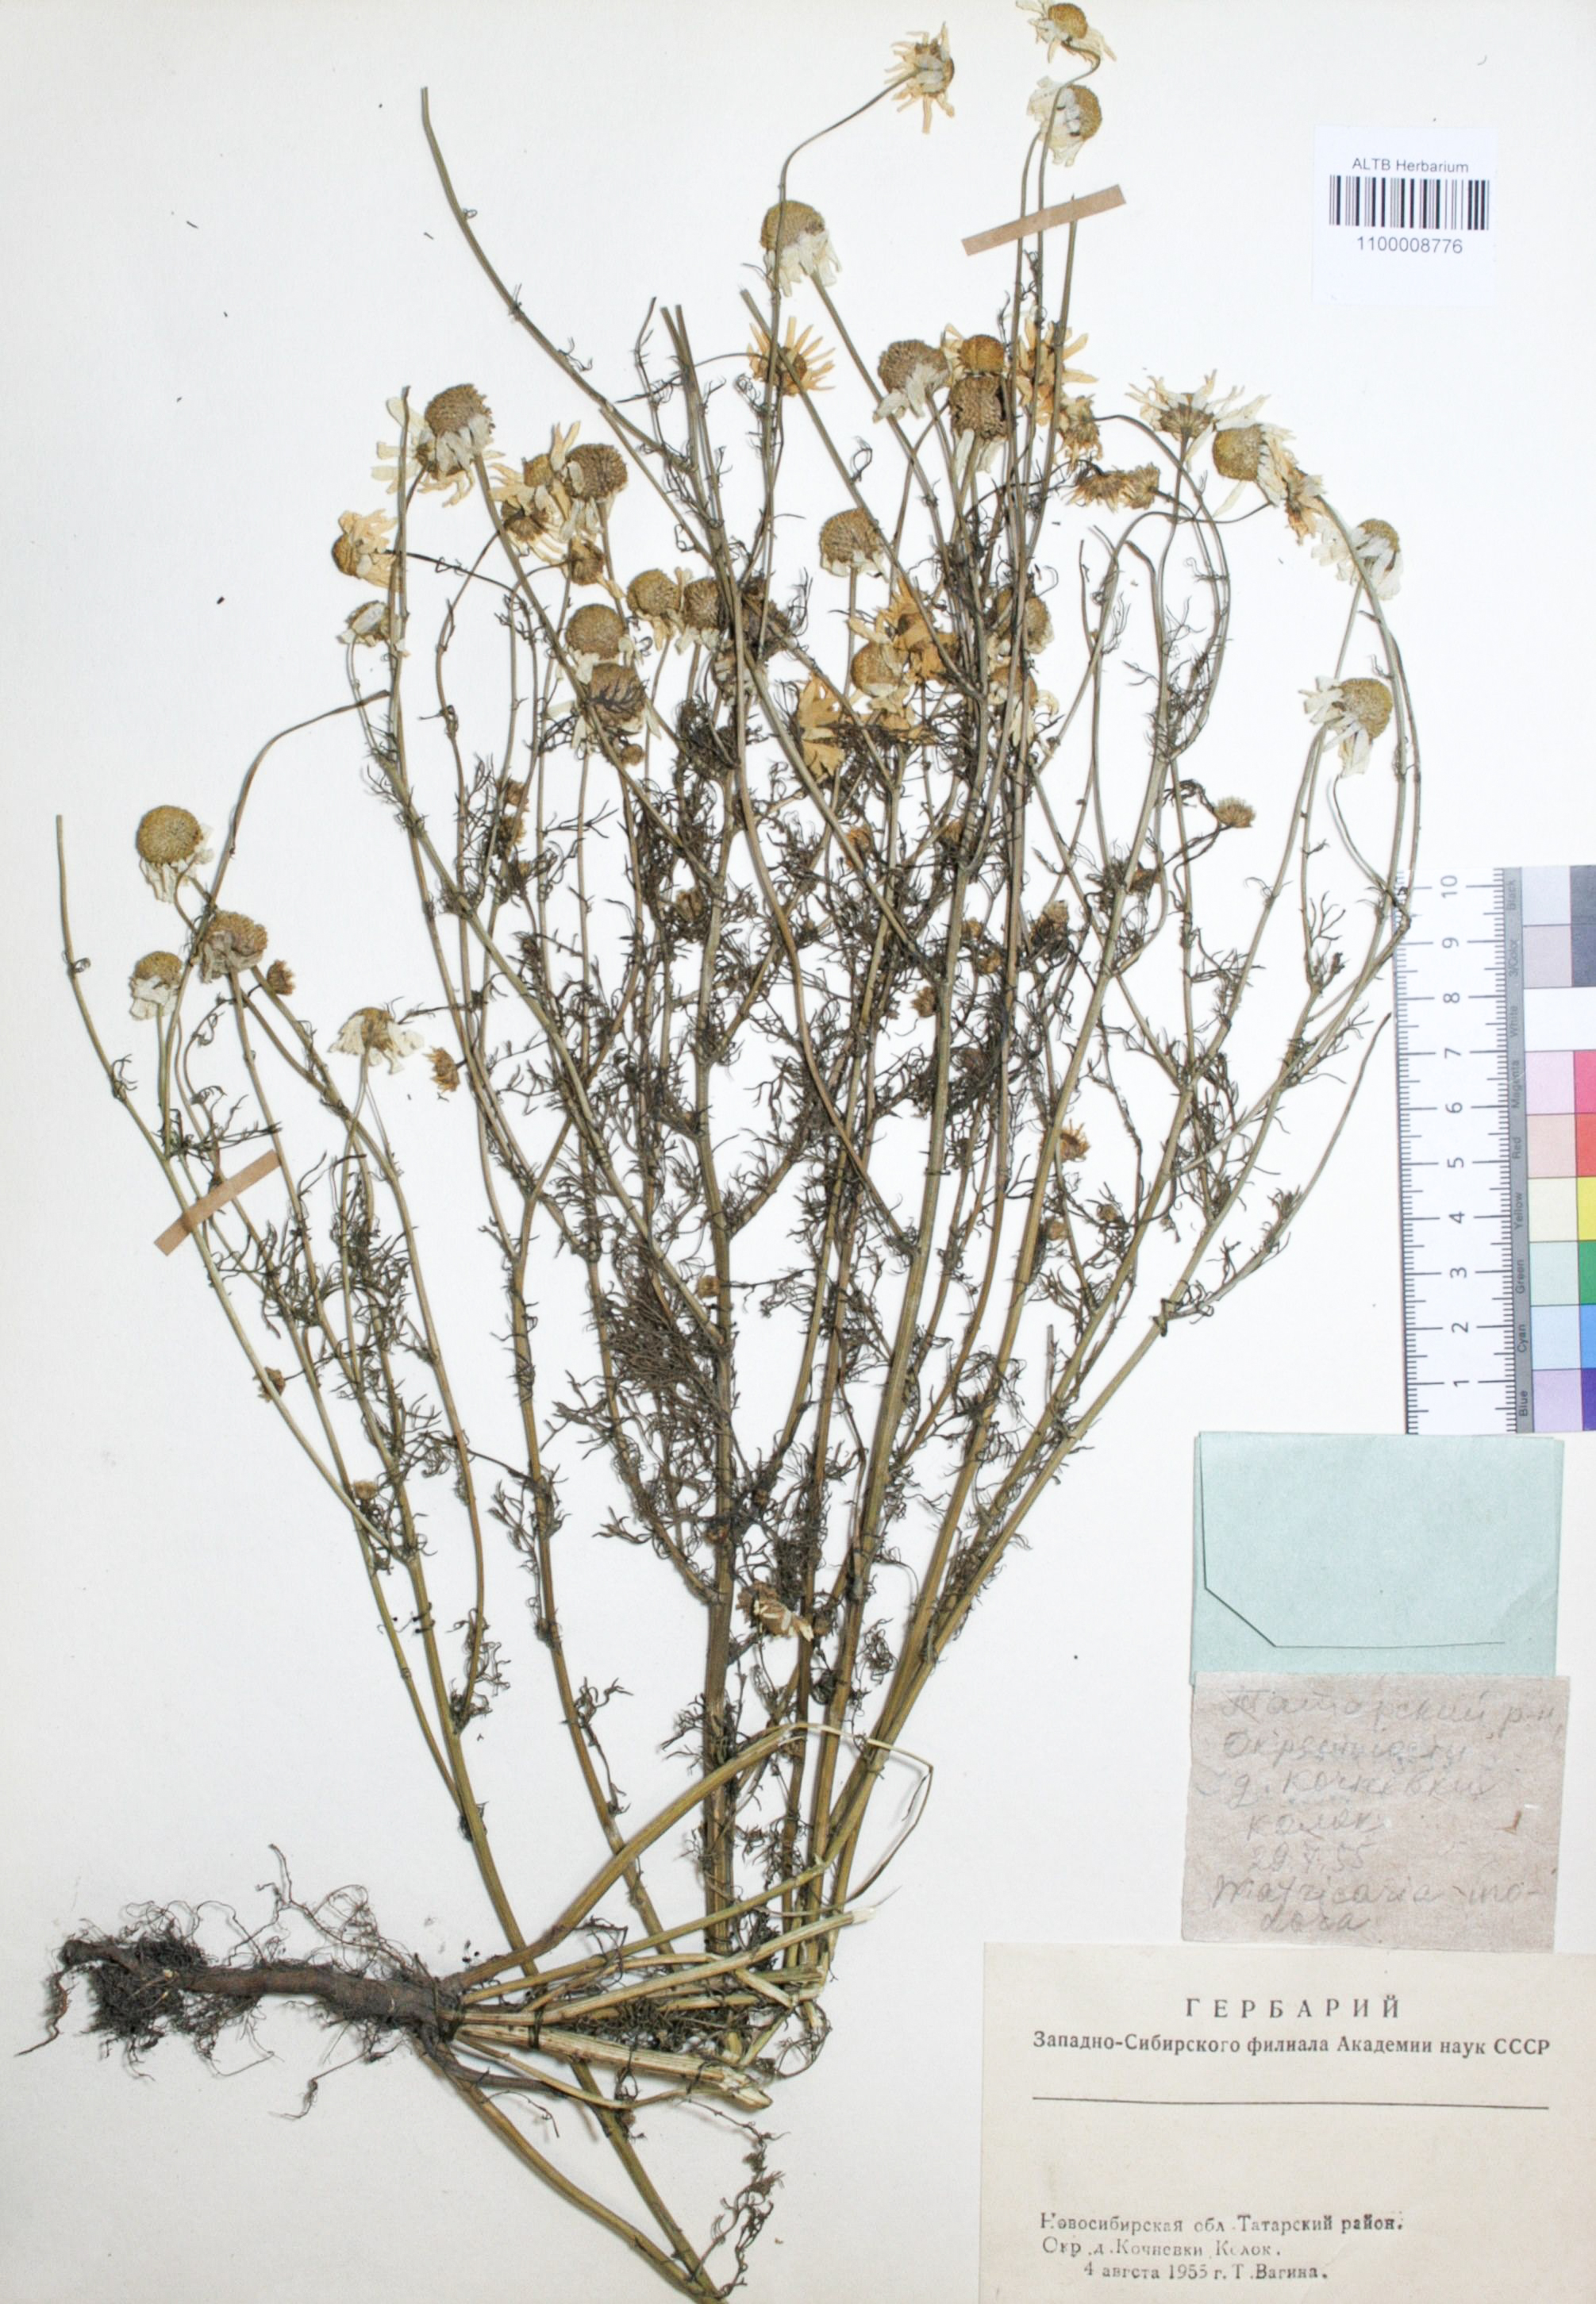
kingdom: Plantae
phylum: Tracheophyta
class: Magnoliopsida
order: Asterales
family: Asteraceae
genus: Tripleurospermum
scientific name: Tripleurospermum inodorum
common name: Scentless mayweed
